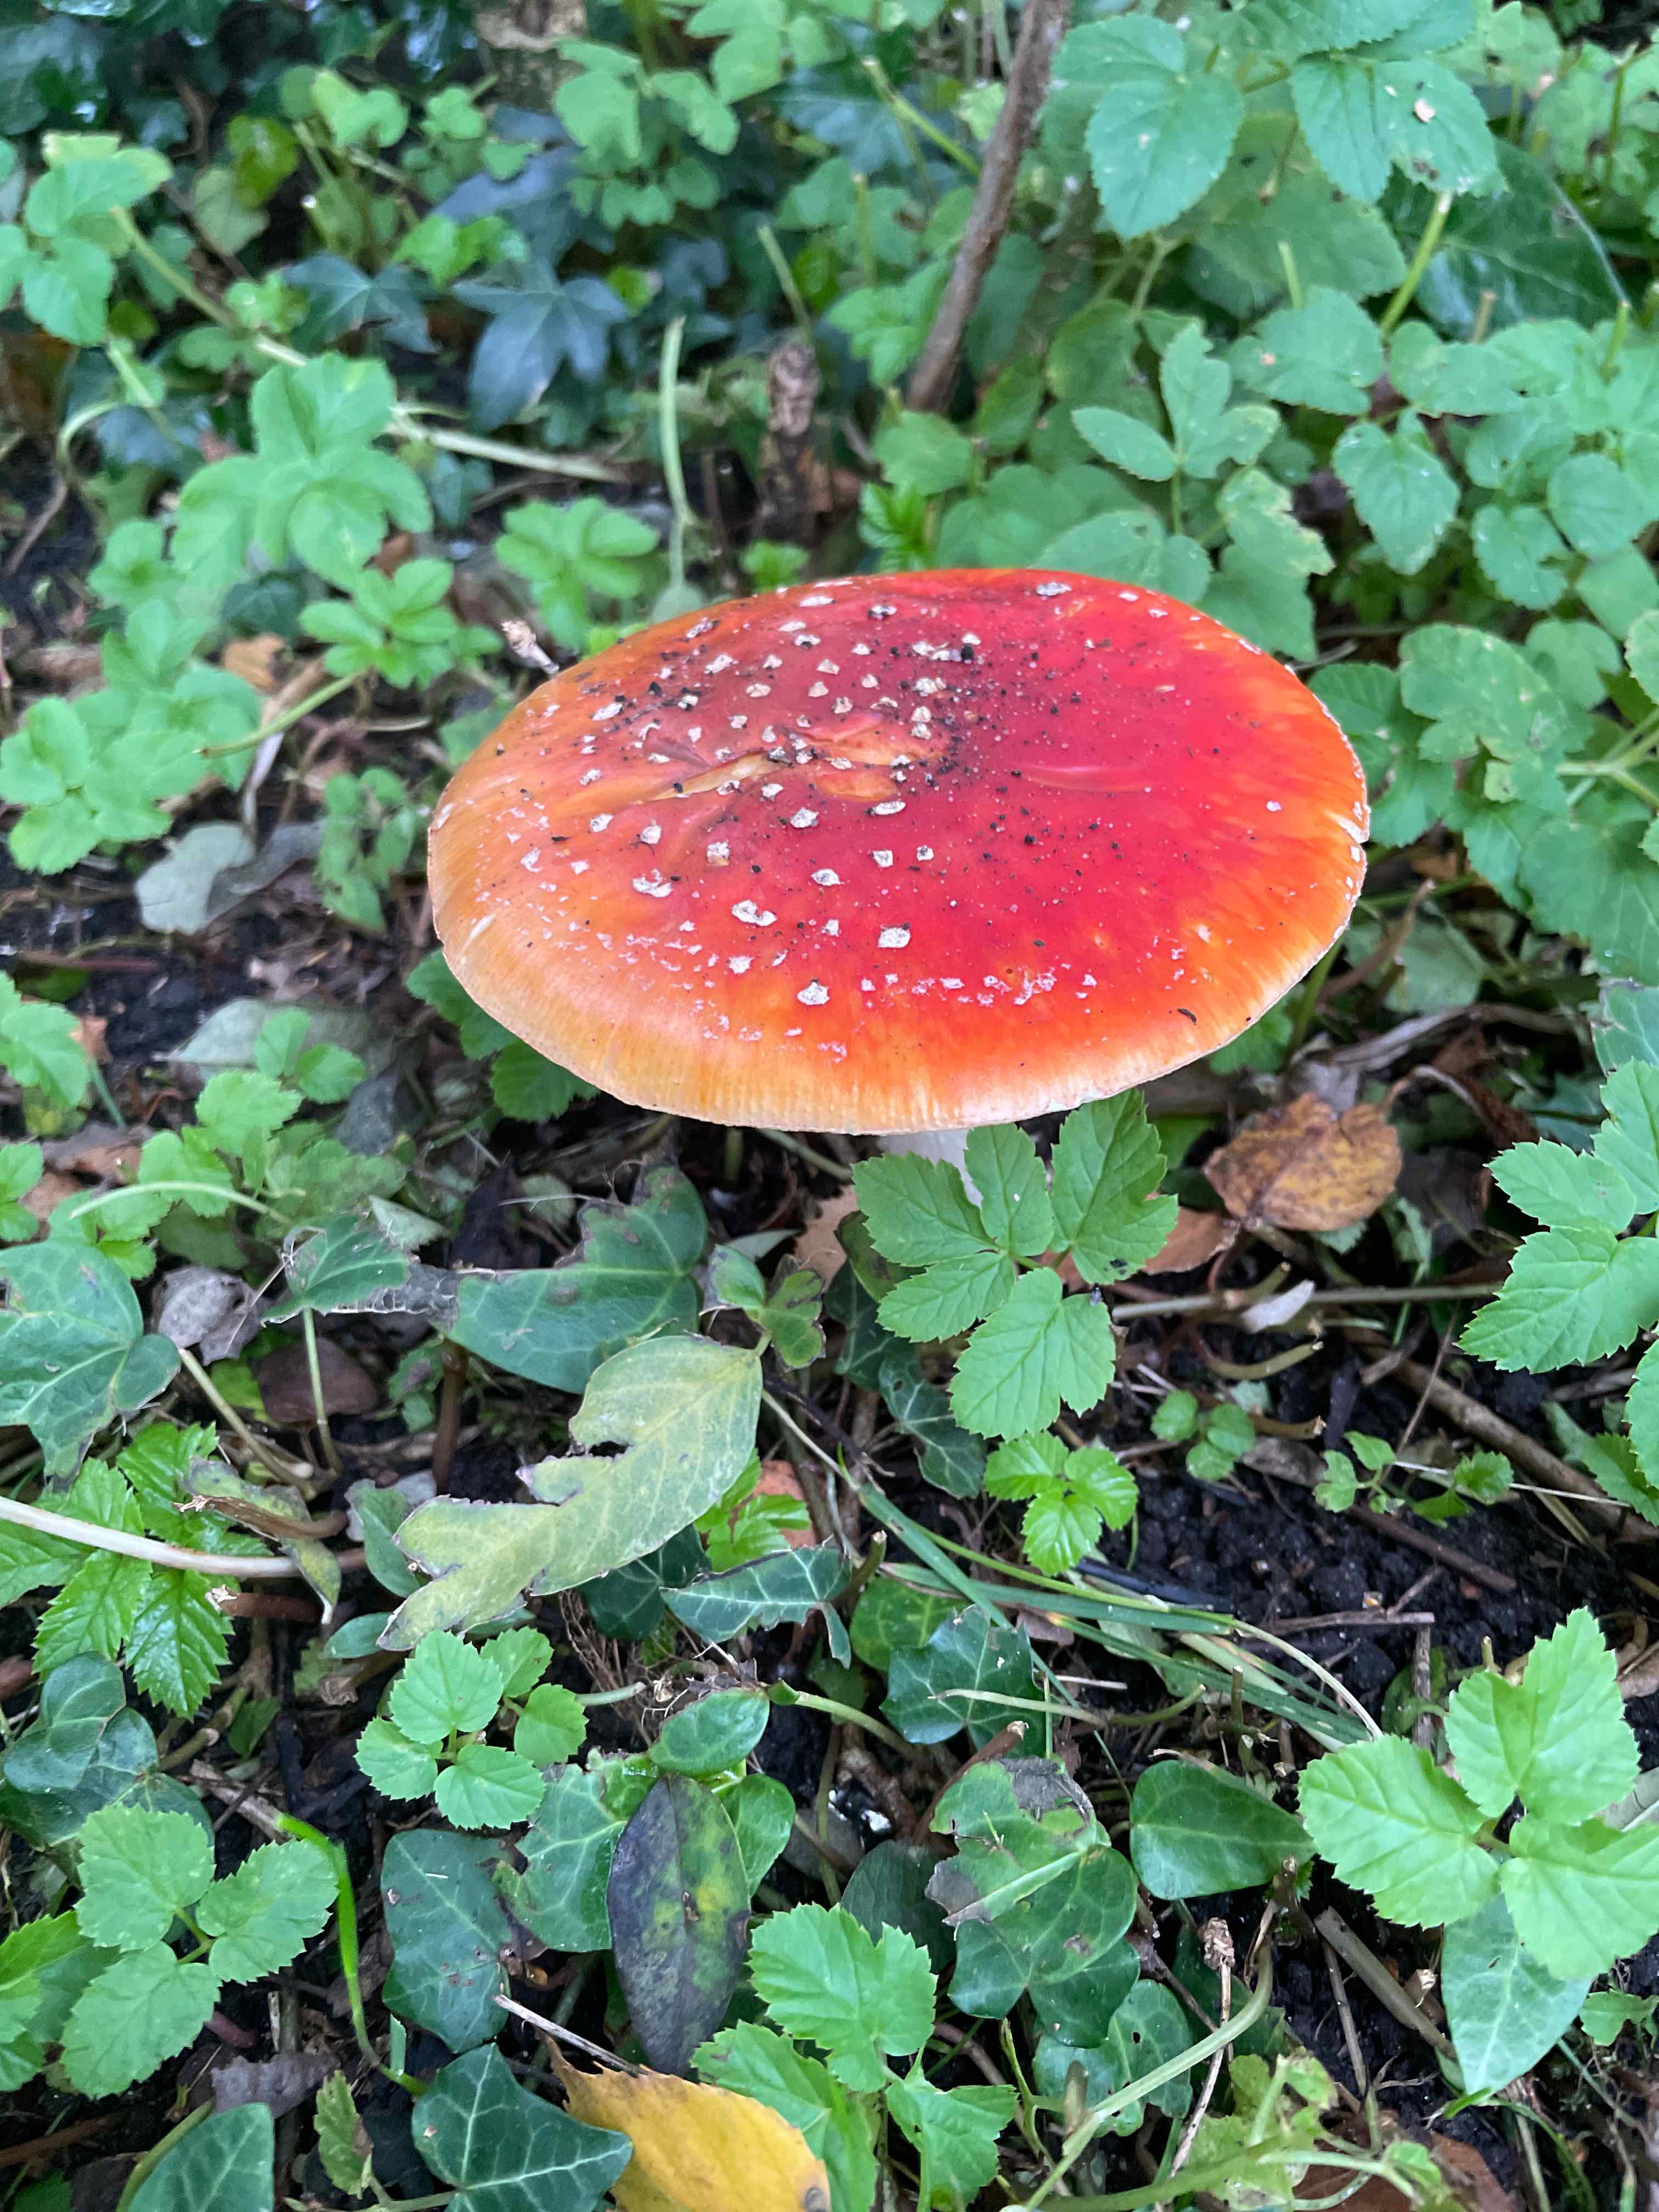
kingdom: Fungi
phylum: Basidiomycota
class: Agaricomycetes
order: Agaricales
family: Amanitaceae
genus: Amanita
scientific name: Amanita muscaria
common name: rød fluesvamp
